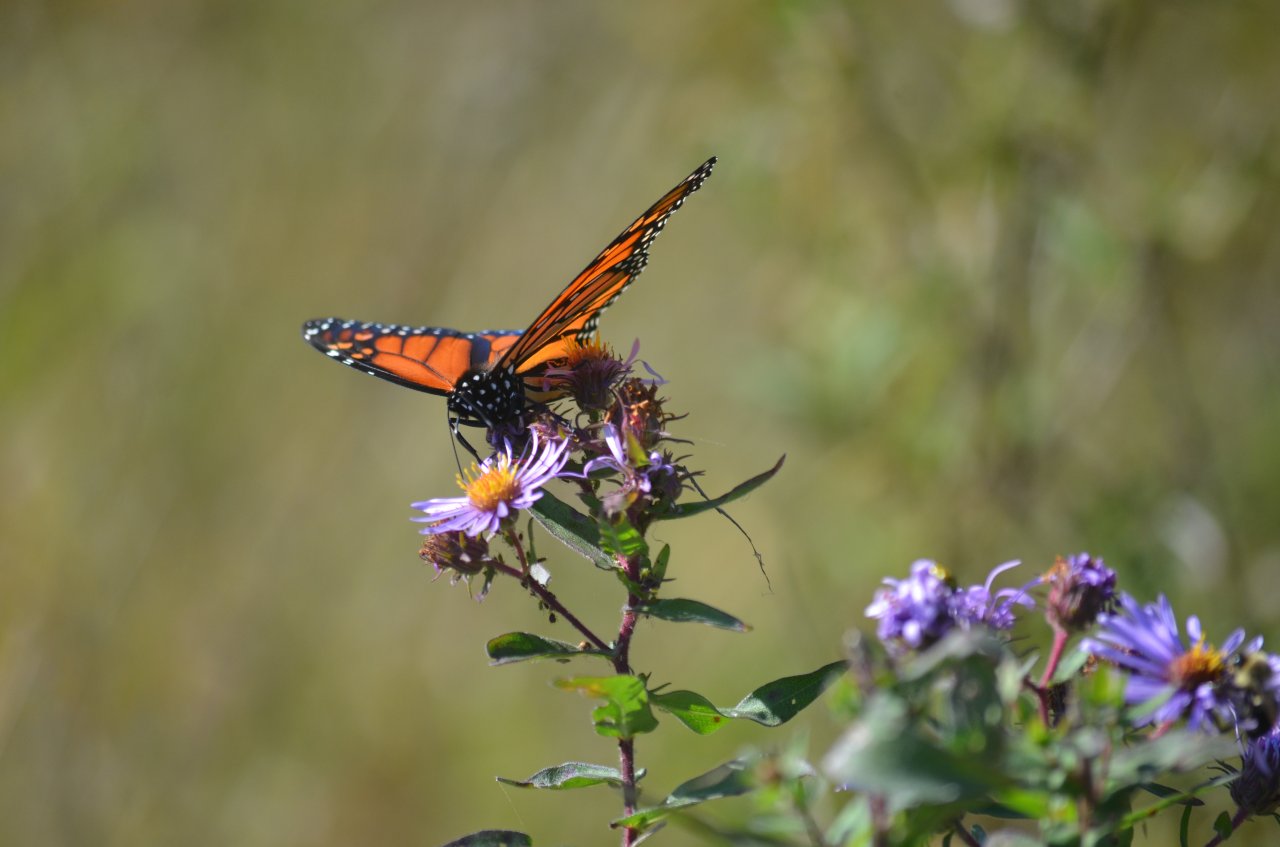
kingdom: Animalia
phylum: Arthropoda
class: Insecta
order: Lepidoptera
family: Nymphalidae
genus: Danaus
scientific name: Danaus plexippus
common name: Monarch
